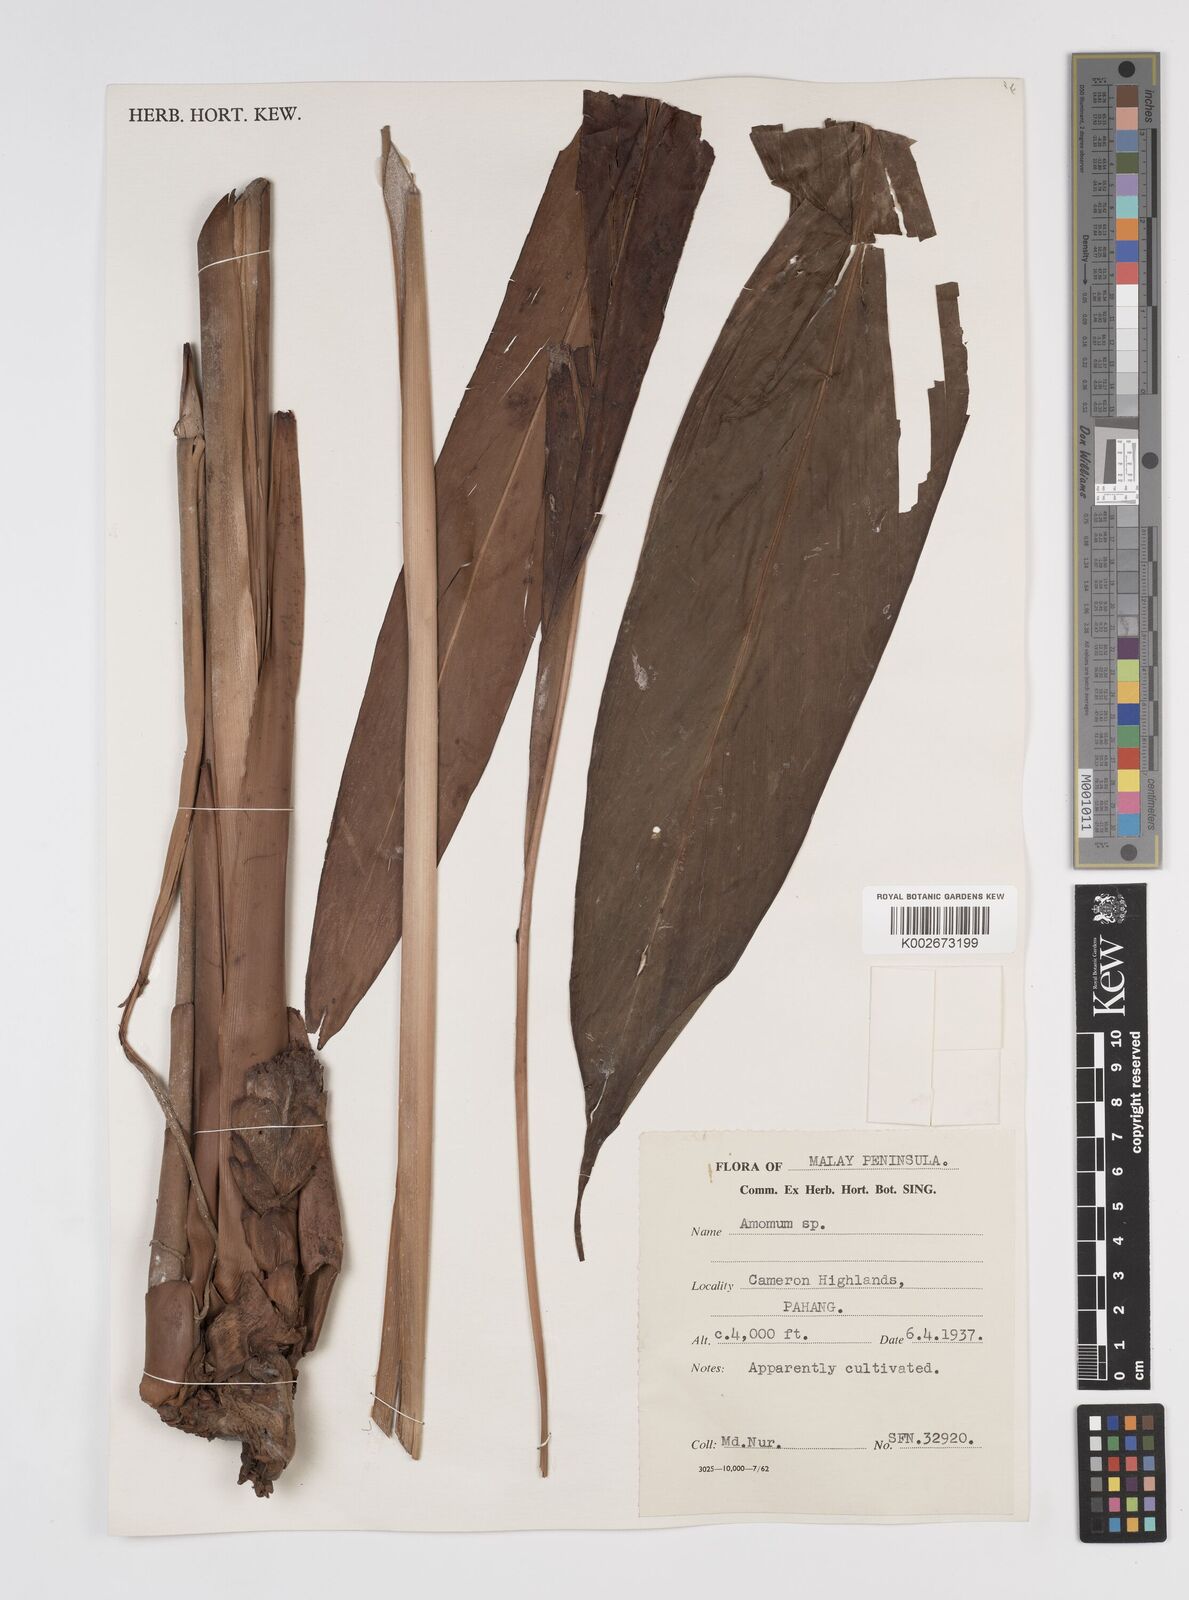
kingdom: Plantae
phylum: Tracheophyta
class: Liliopsida
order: Zingiberales
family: Zingiberaceae
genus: Amomum
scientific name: Amomum
